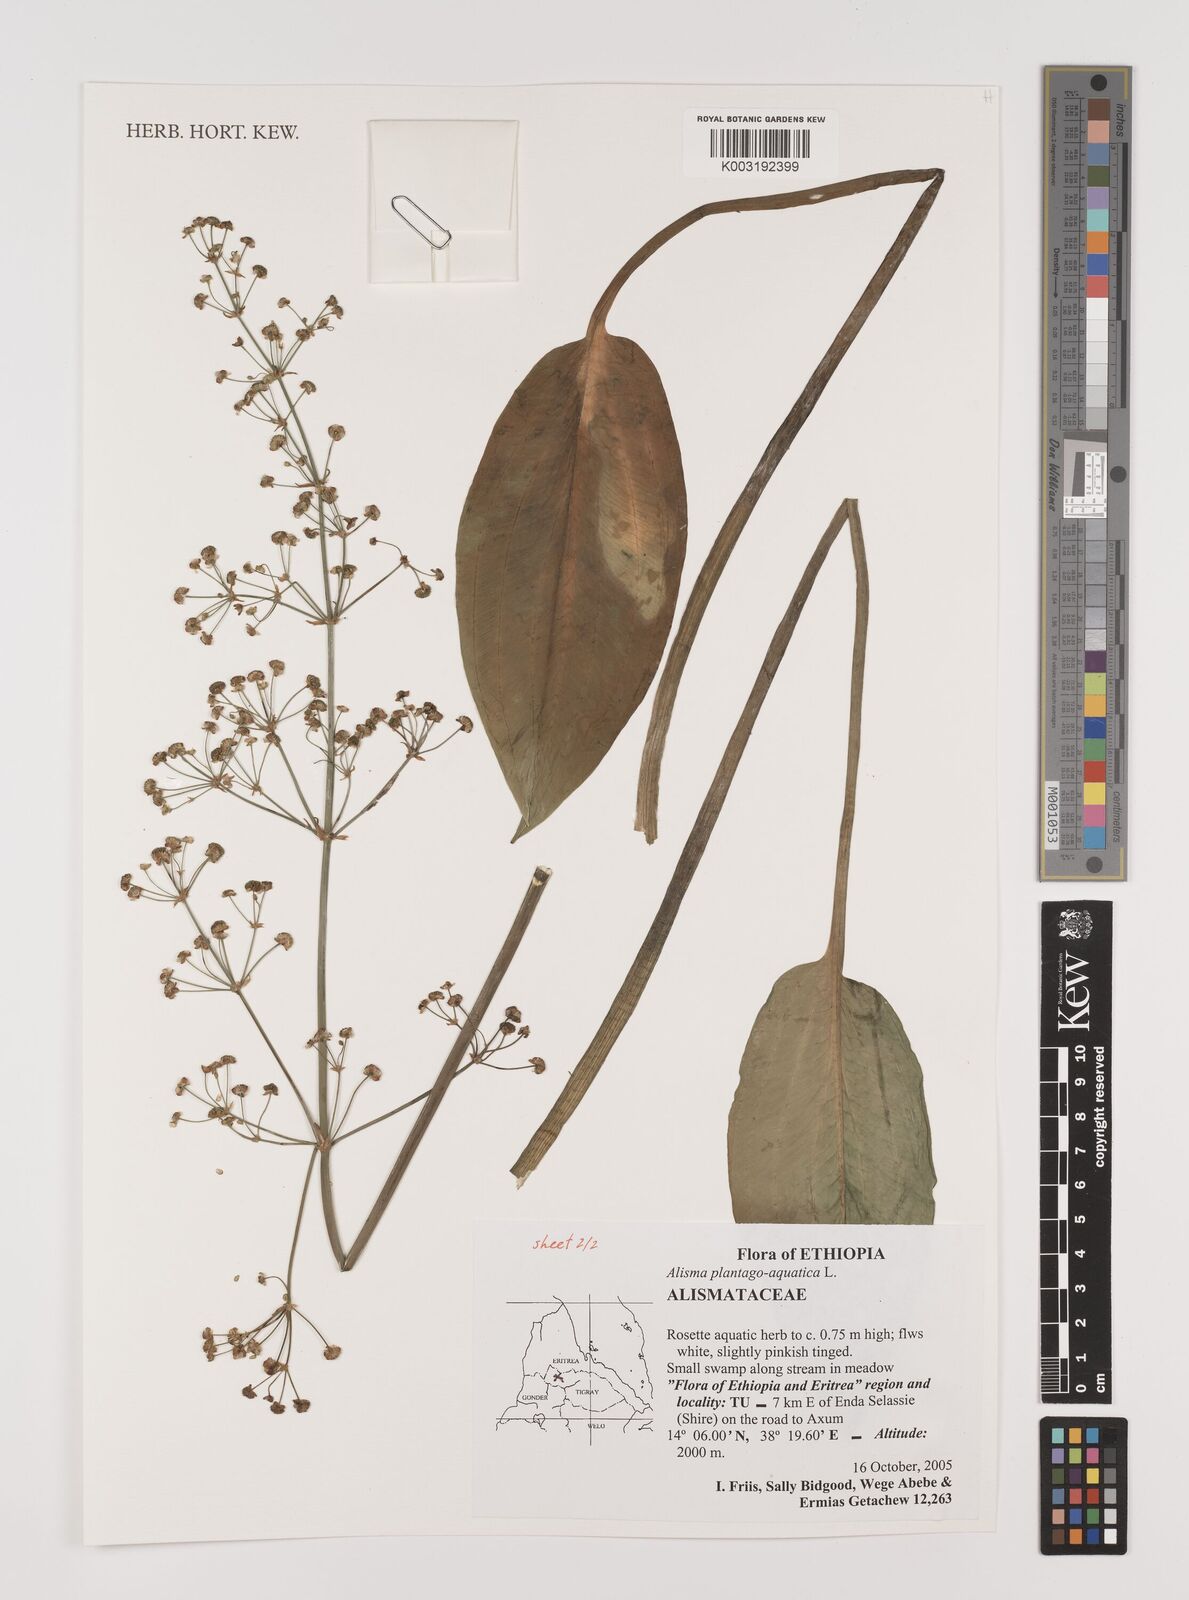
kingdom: Plantae
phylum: Tracheophyta
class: Liliopsida
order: Alismatales
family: Alismataceae
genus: Alisma
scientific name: Alisma plantago-aquatica
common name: Water-plantain
